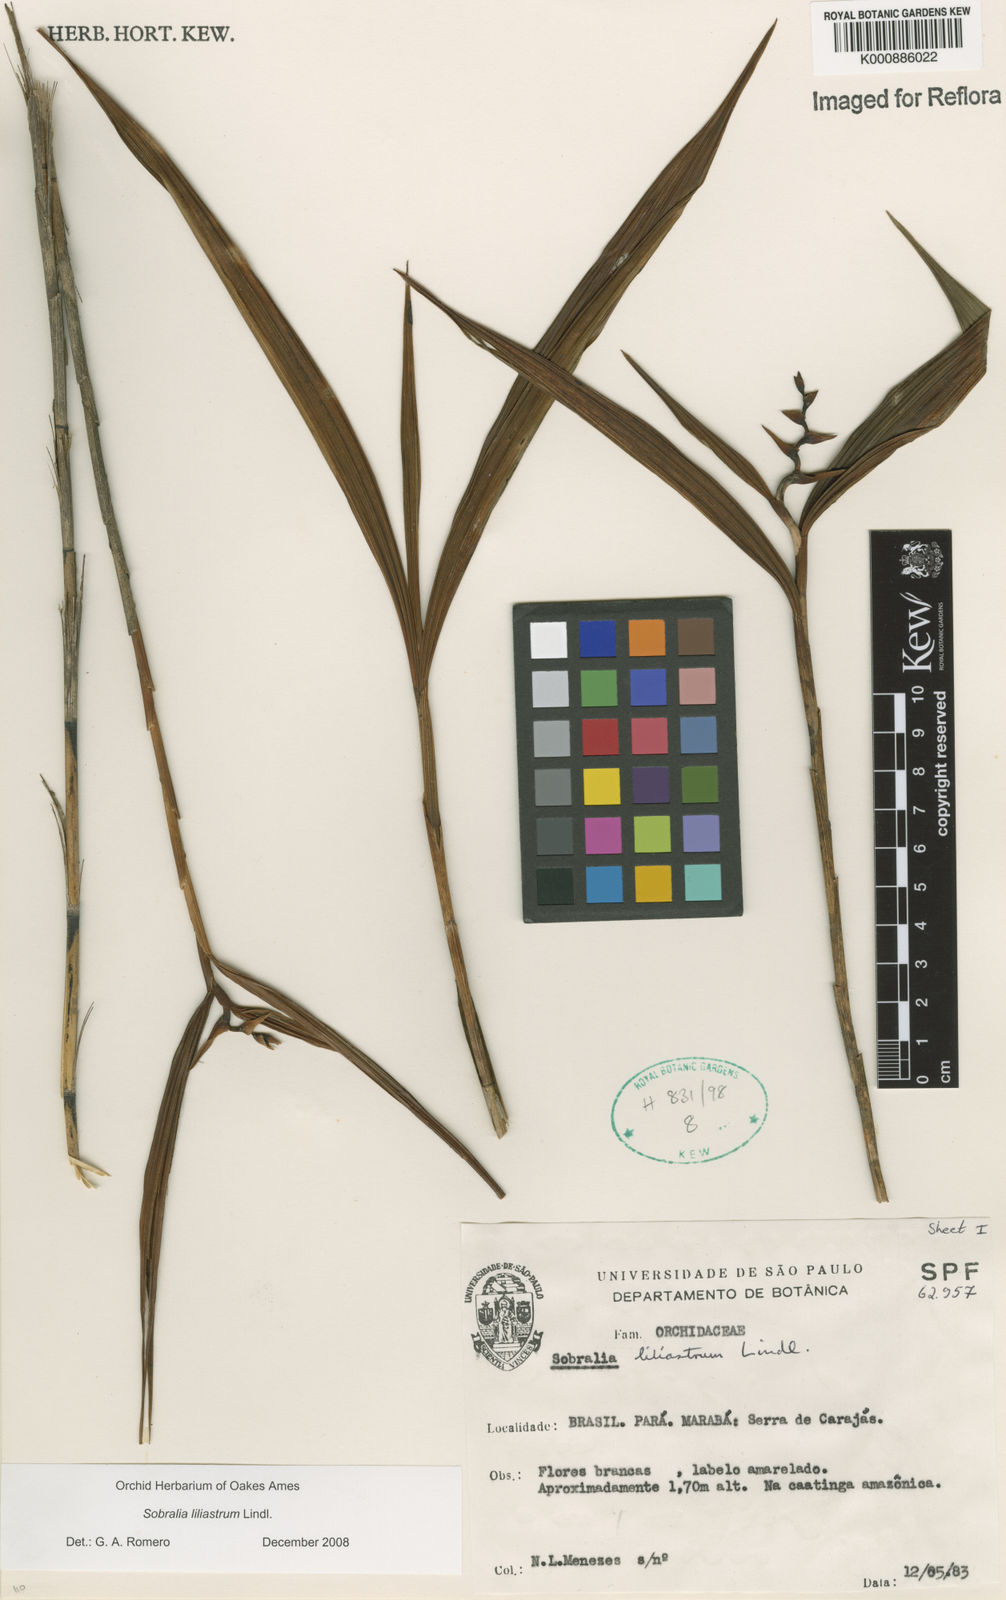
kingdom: Plantae
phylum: Tracheophyta
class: Liliopsida
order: Asparagales
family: Orchidaceae
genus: Sobralia
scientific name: Sobralia liliastrum
